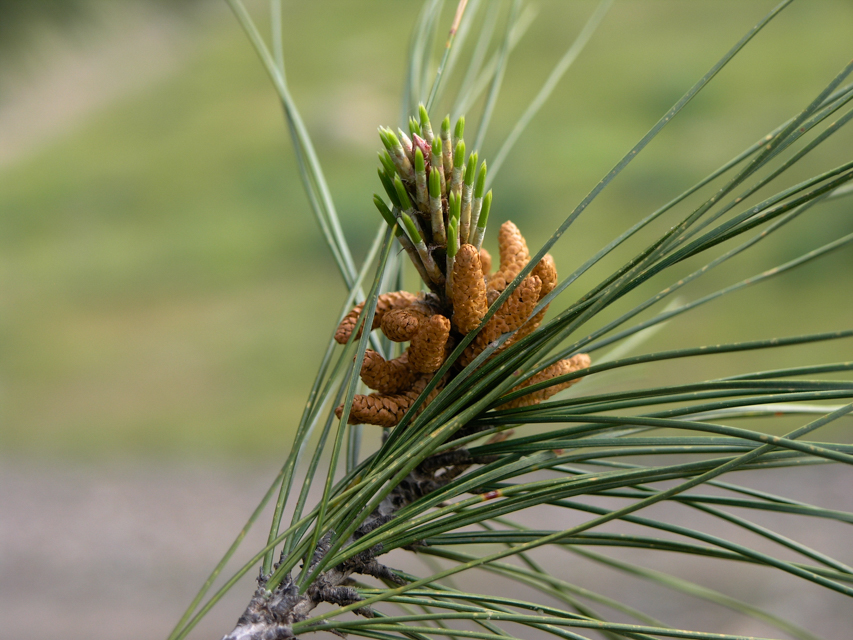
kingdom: Plantae
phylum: Tracheophyta
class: Pinopsida
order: Pinales
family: Pinaceae
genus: Pinus
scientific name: Pinus brutia
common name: Turkish pine
